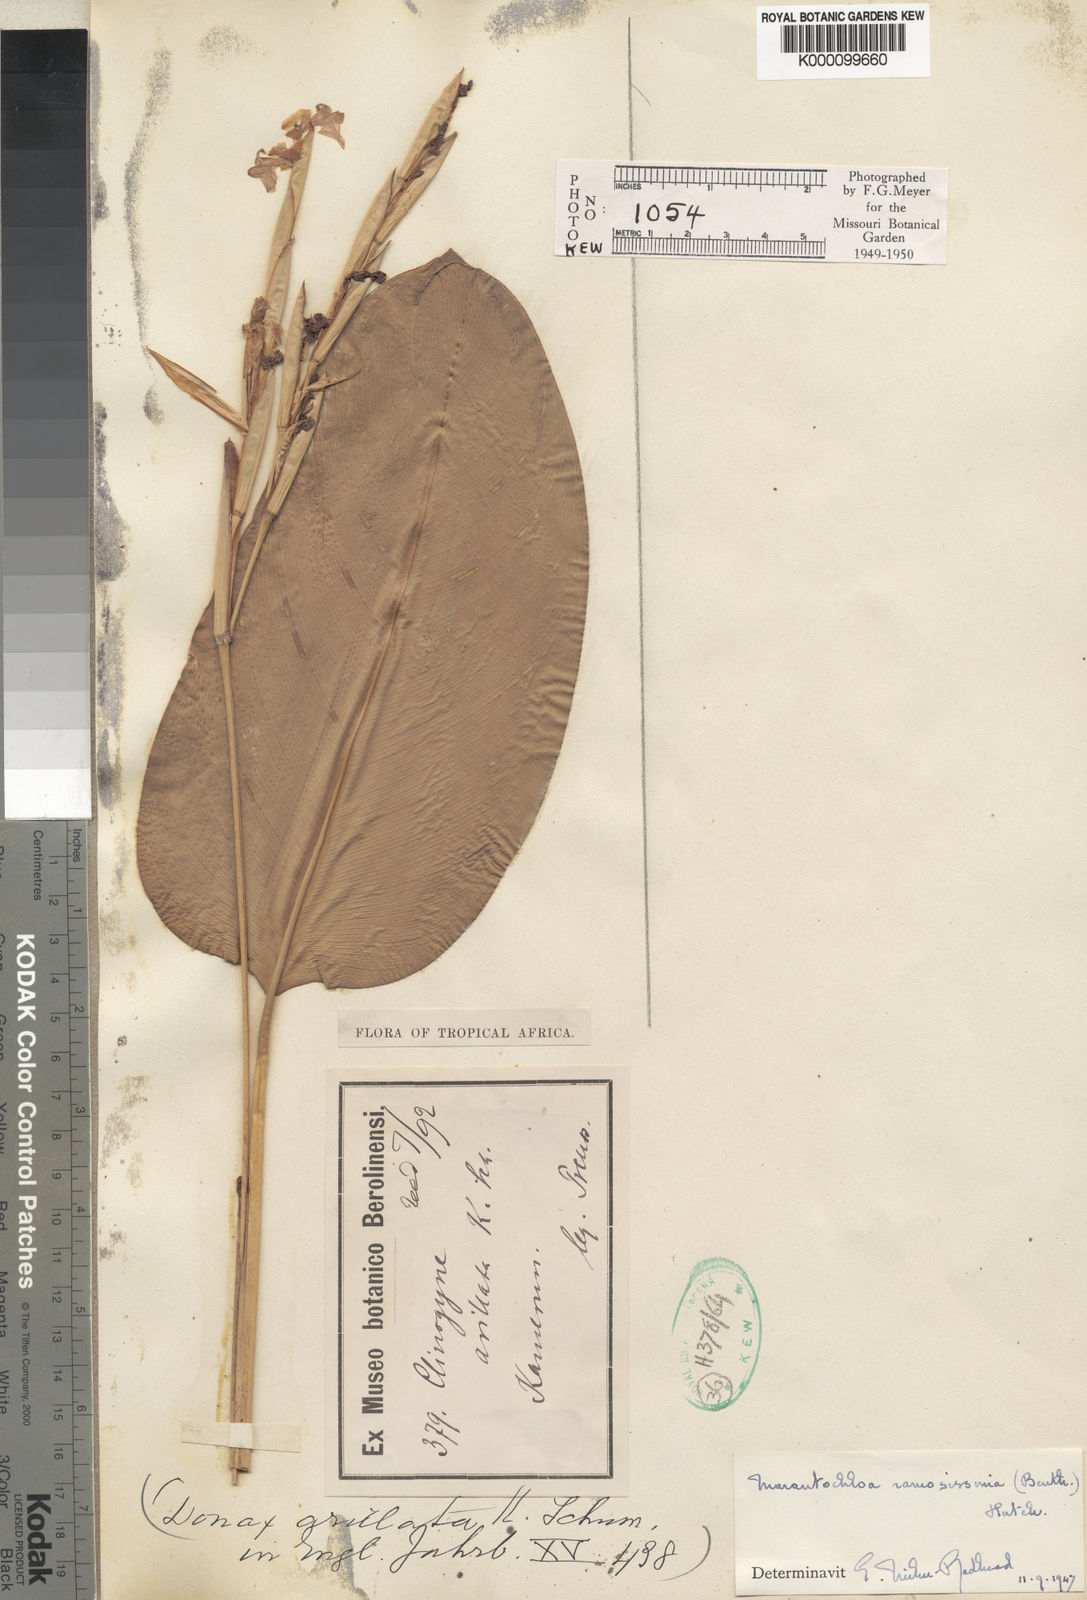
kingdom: Plantae
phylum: Tracheophyta
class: Liliopsida
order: Zingiberales
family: Marantaceae
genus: Marantochloa
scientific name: Marantochloa ramosissima
